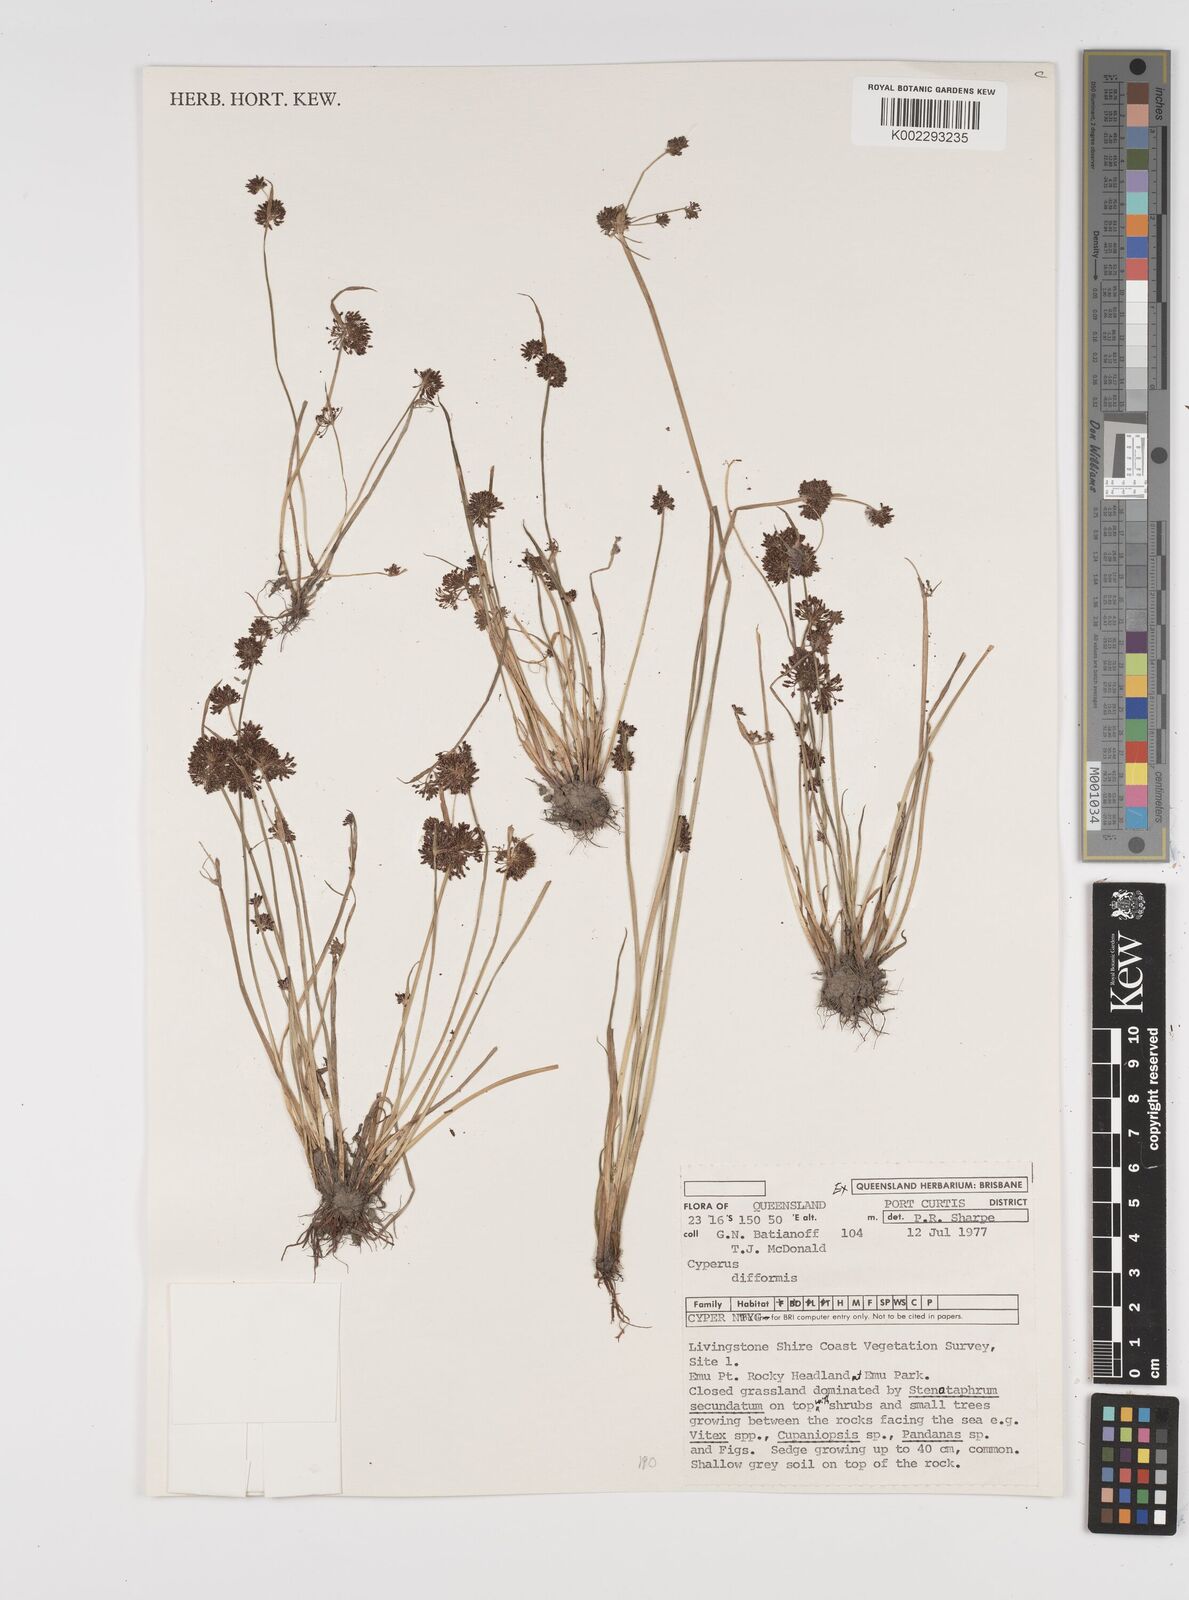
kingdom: Plantae
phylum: Tracheophyta
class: Liliopsida
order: Poales
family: Cyperaceae
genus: Cyperus
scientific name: Cyperus difformis
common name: Variable flatsedge
